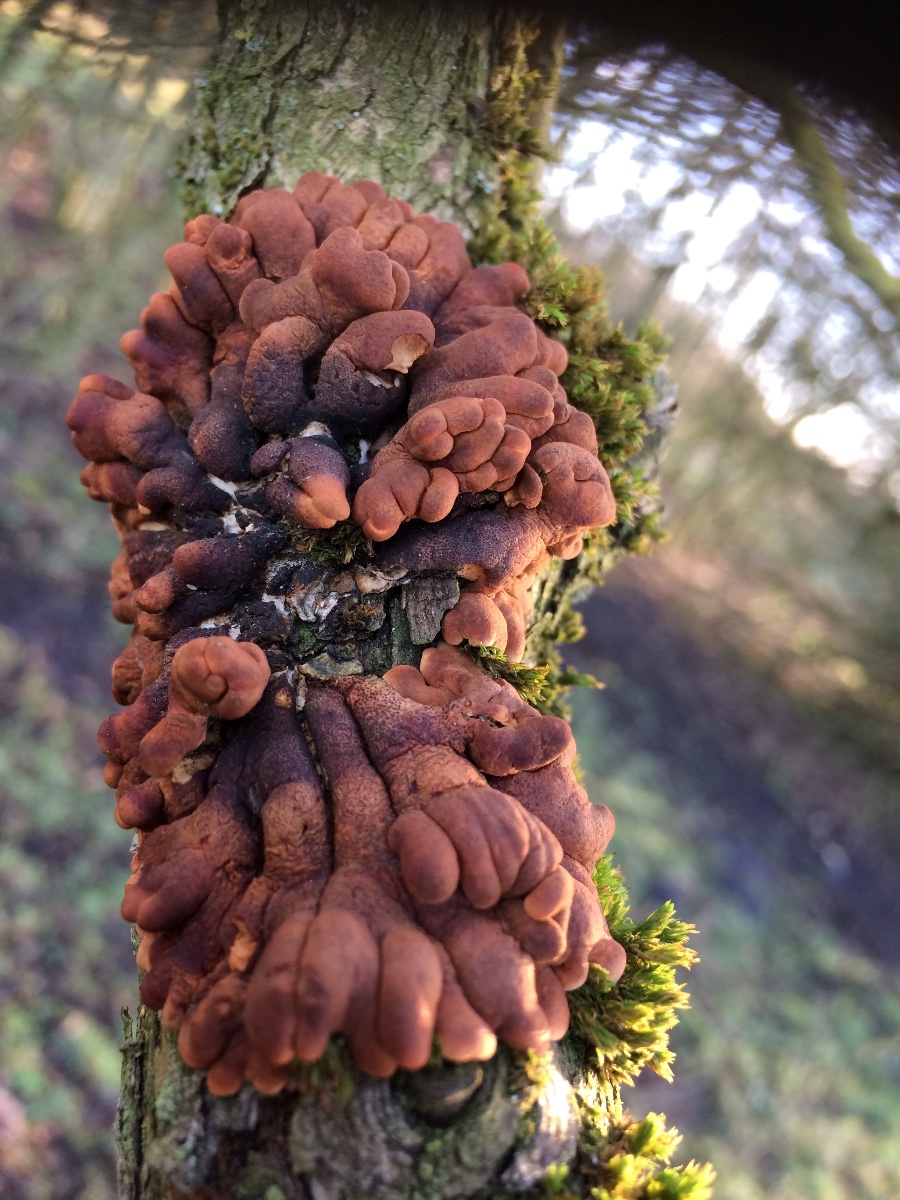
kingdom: Fungi
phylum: Ascomycota
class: Sordariomycetes
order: Hypocreales
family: Hypocreaceae
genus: Hypocreopsis
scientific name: Hypocreopsis lichenoides
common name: pilfinger
